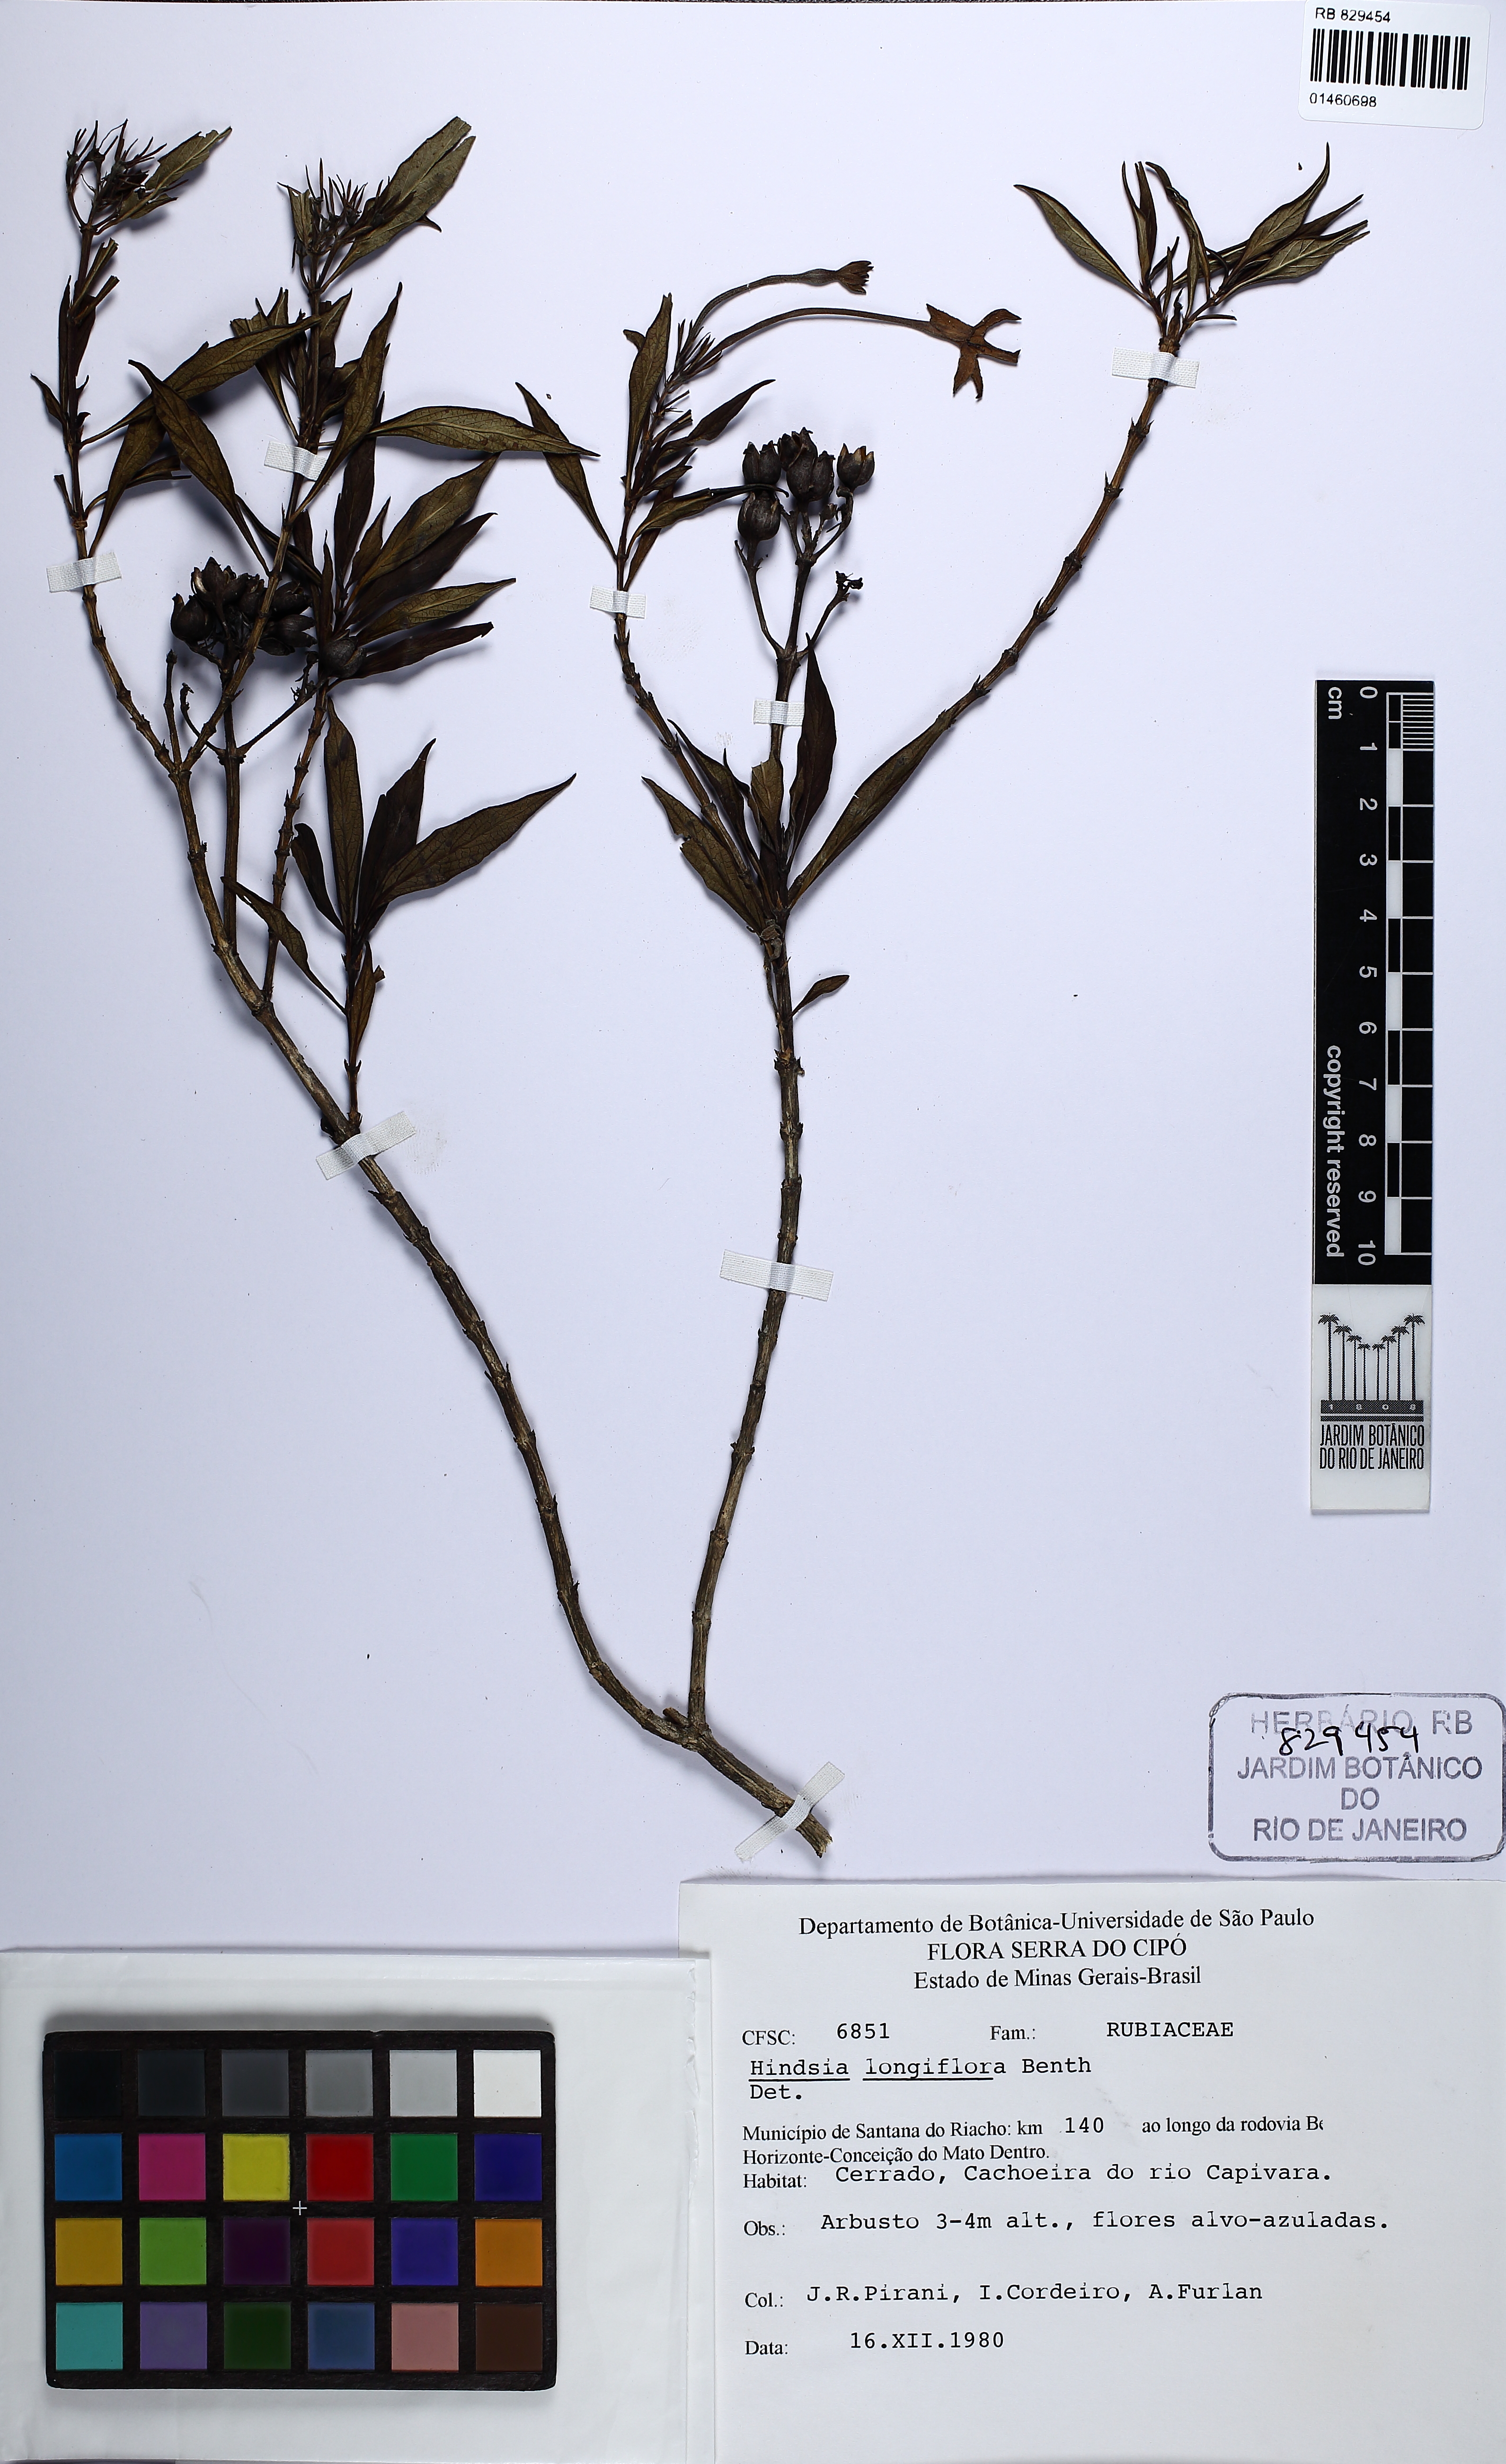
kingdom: Plantae
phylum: Tracheophyta
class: Magnoliopsida
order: Gentianales
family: Rubiaceae
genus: Hindsia
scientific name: Hindsia longiflora
